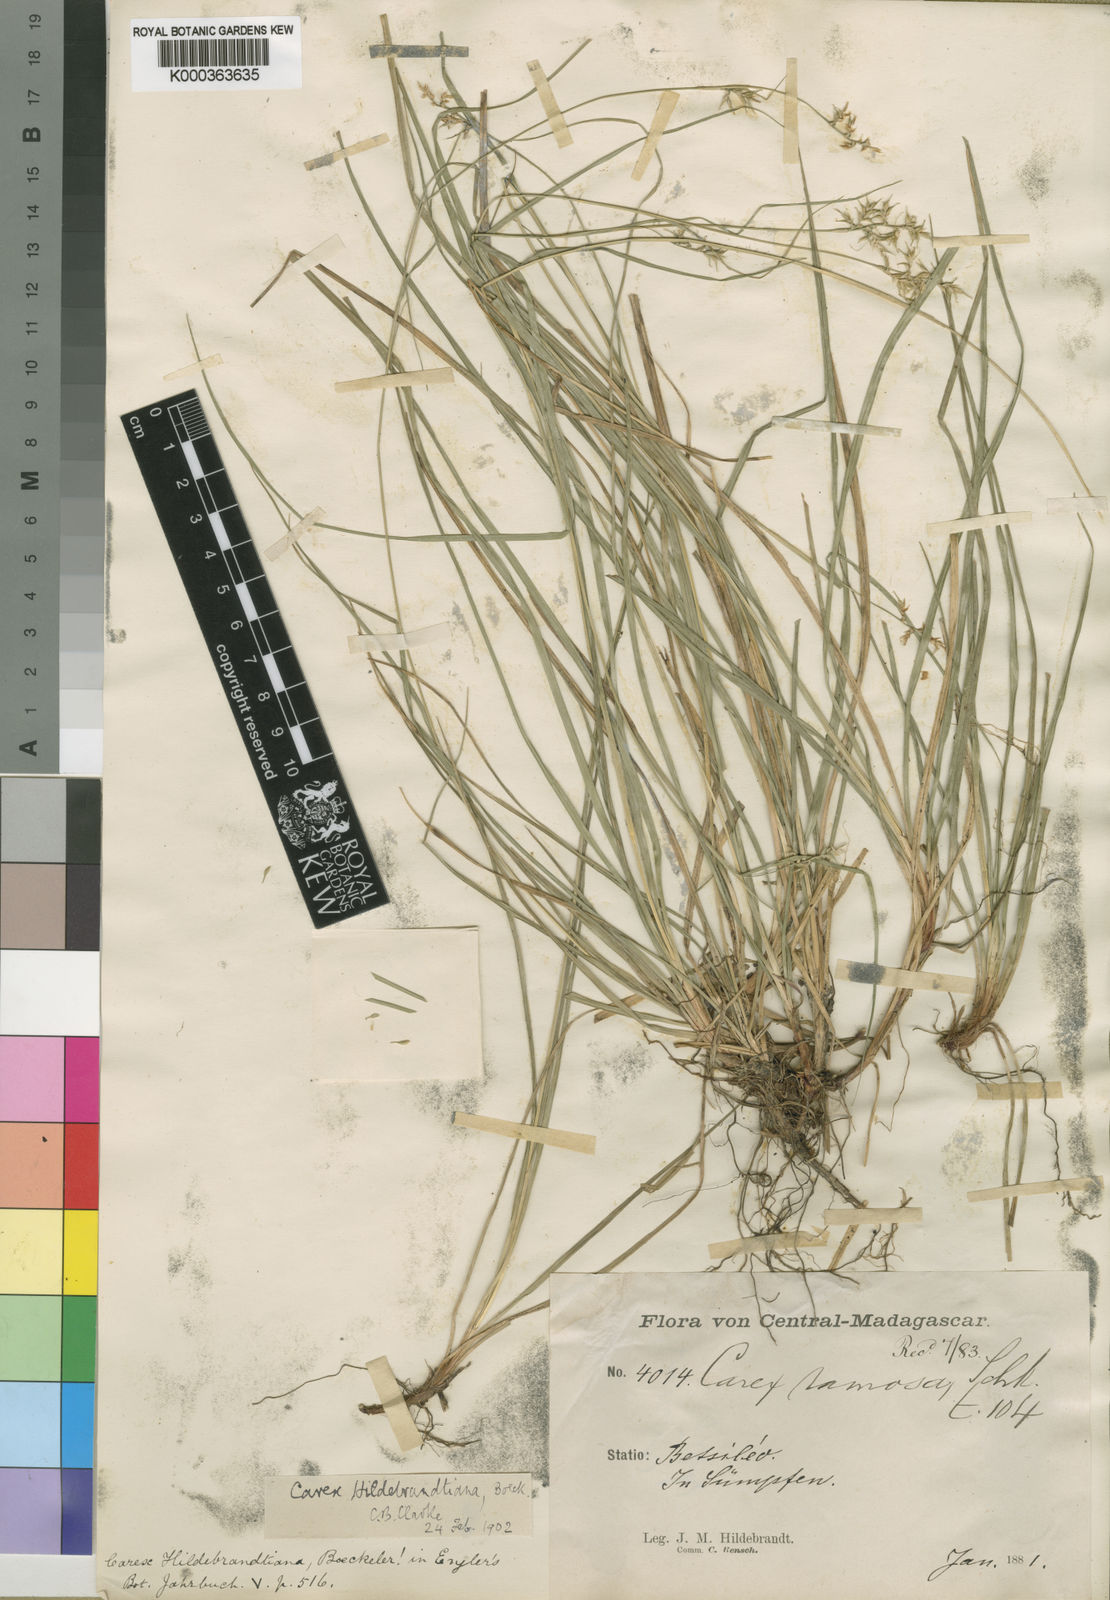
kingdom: Plantae
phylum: Tracheophyta
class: Liliopsida
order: Poales
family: Cyperaceae
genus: Carex
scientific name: Carex hildebrandtiana
